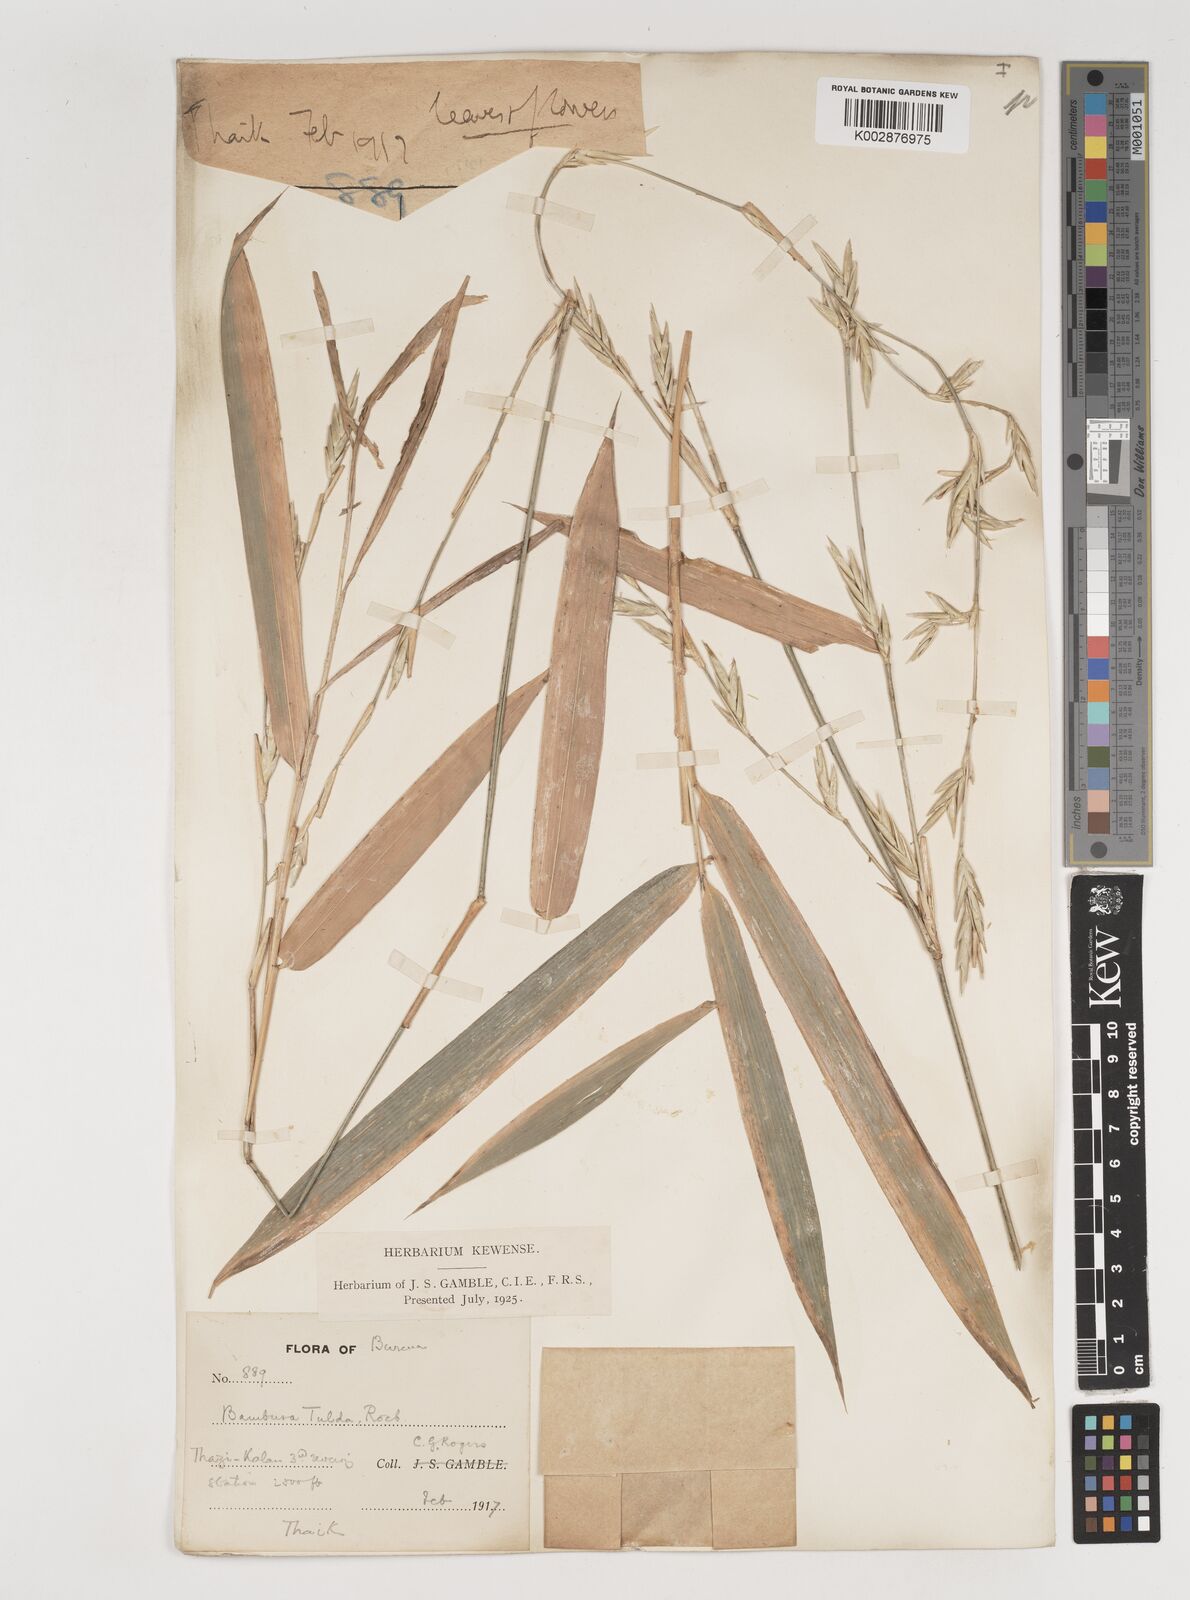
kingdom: Plantae
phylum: Tracheophyta
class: Liliopsida
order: Poales
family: Poaceae
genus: Bambusa
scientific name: Bambusa tulda
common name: Bengal bamboo
